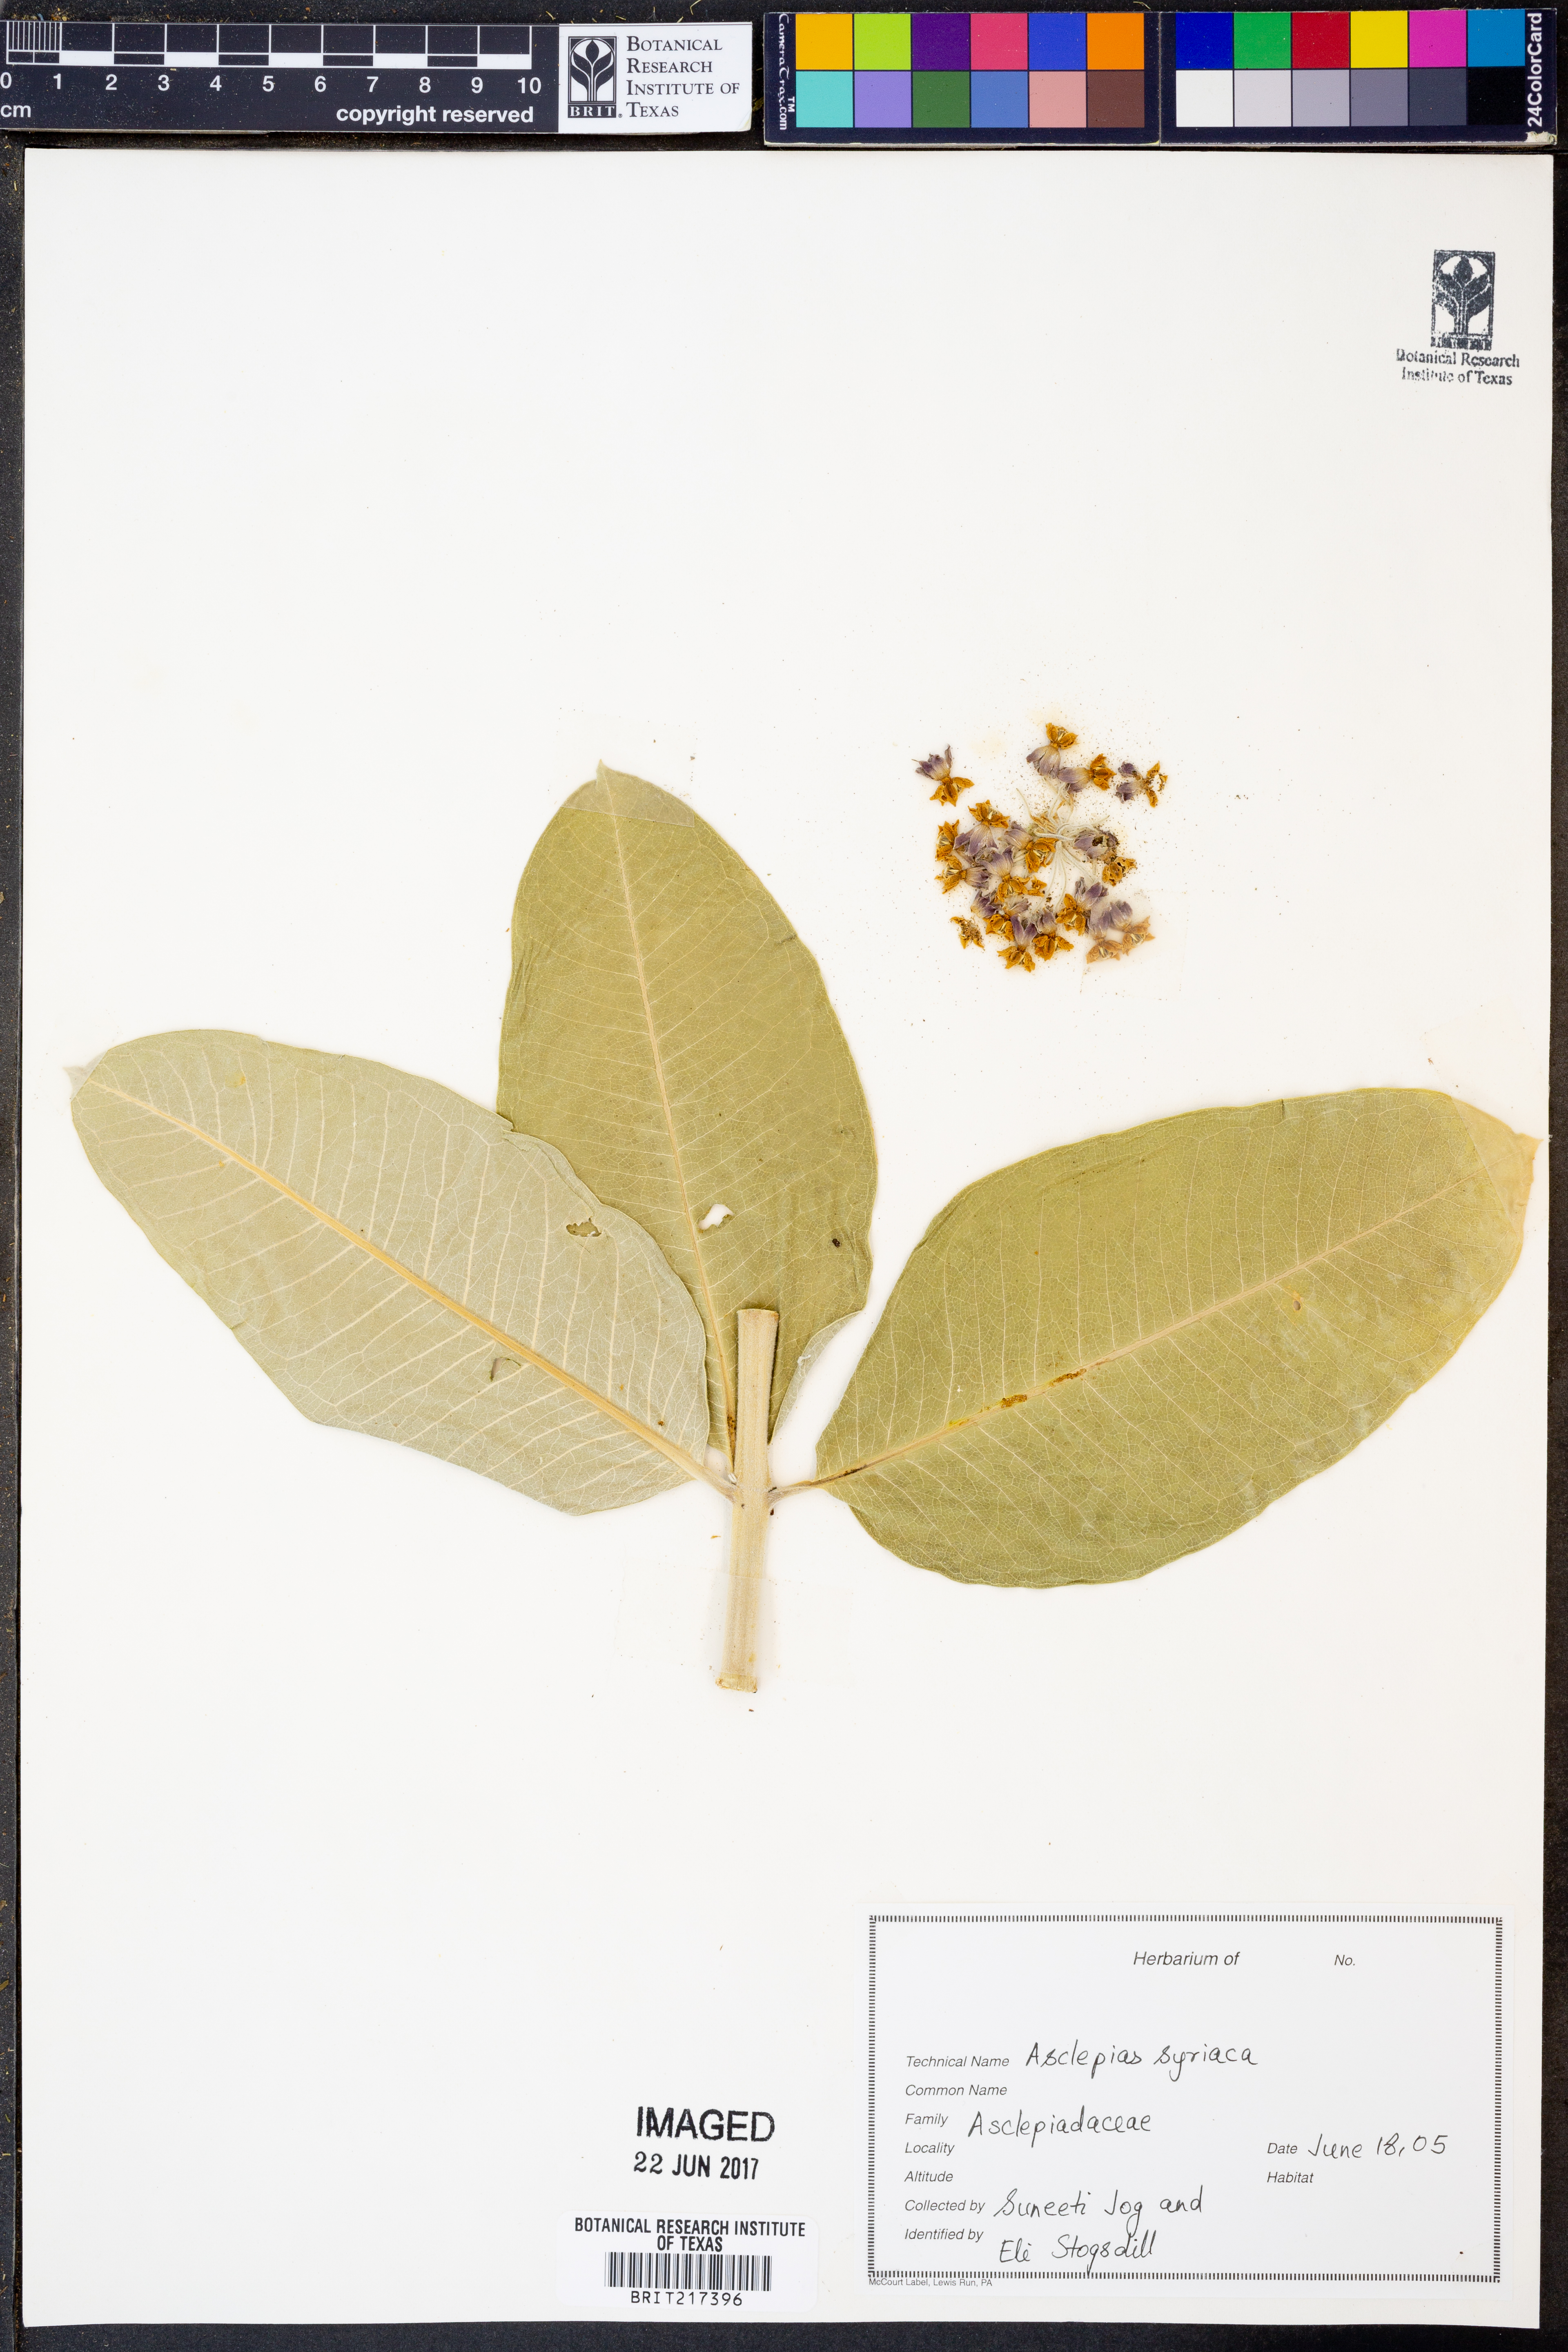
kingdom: Plantae
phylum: Tracheophyta
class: Magnoliopsida
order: Gentianales
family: Apocynaceae
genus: Asclepias
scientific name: Asclepias syriaca
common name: Common milkweed
